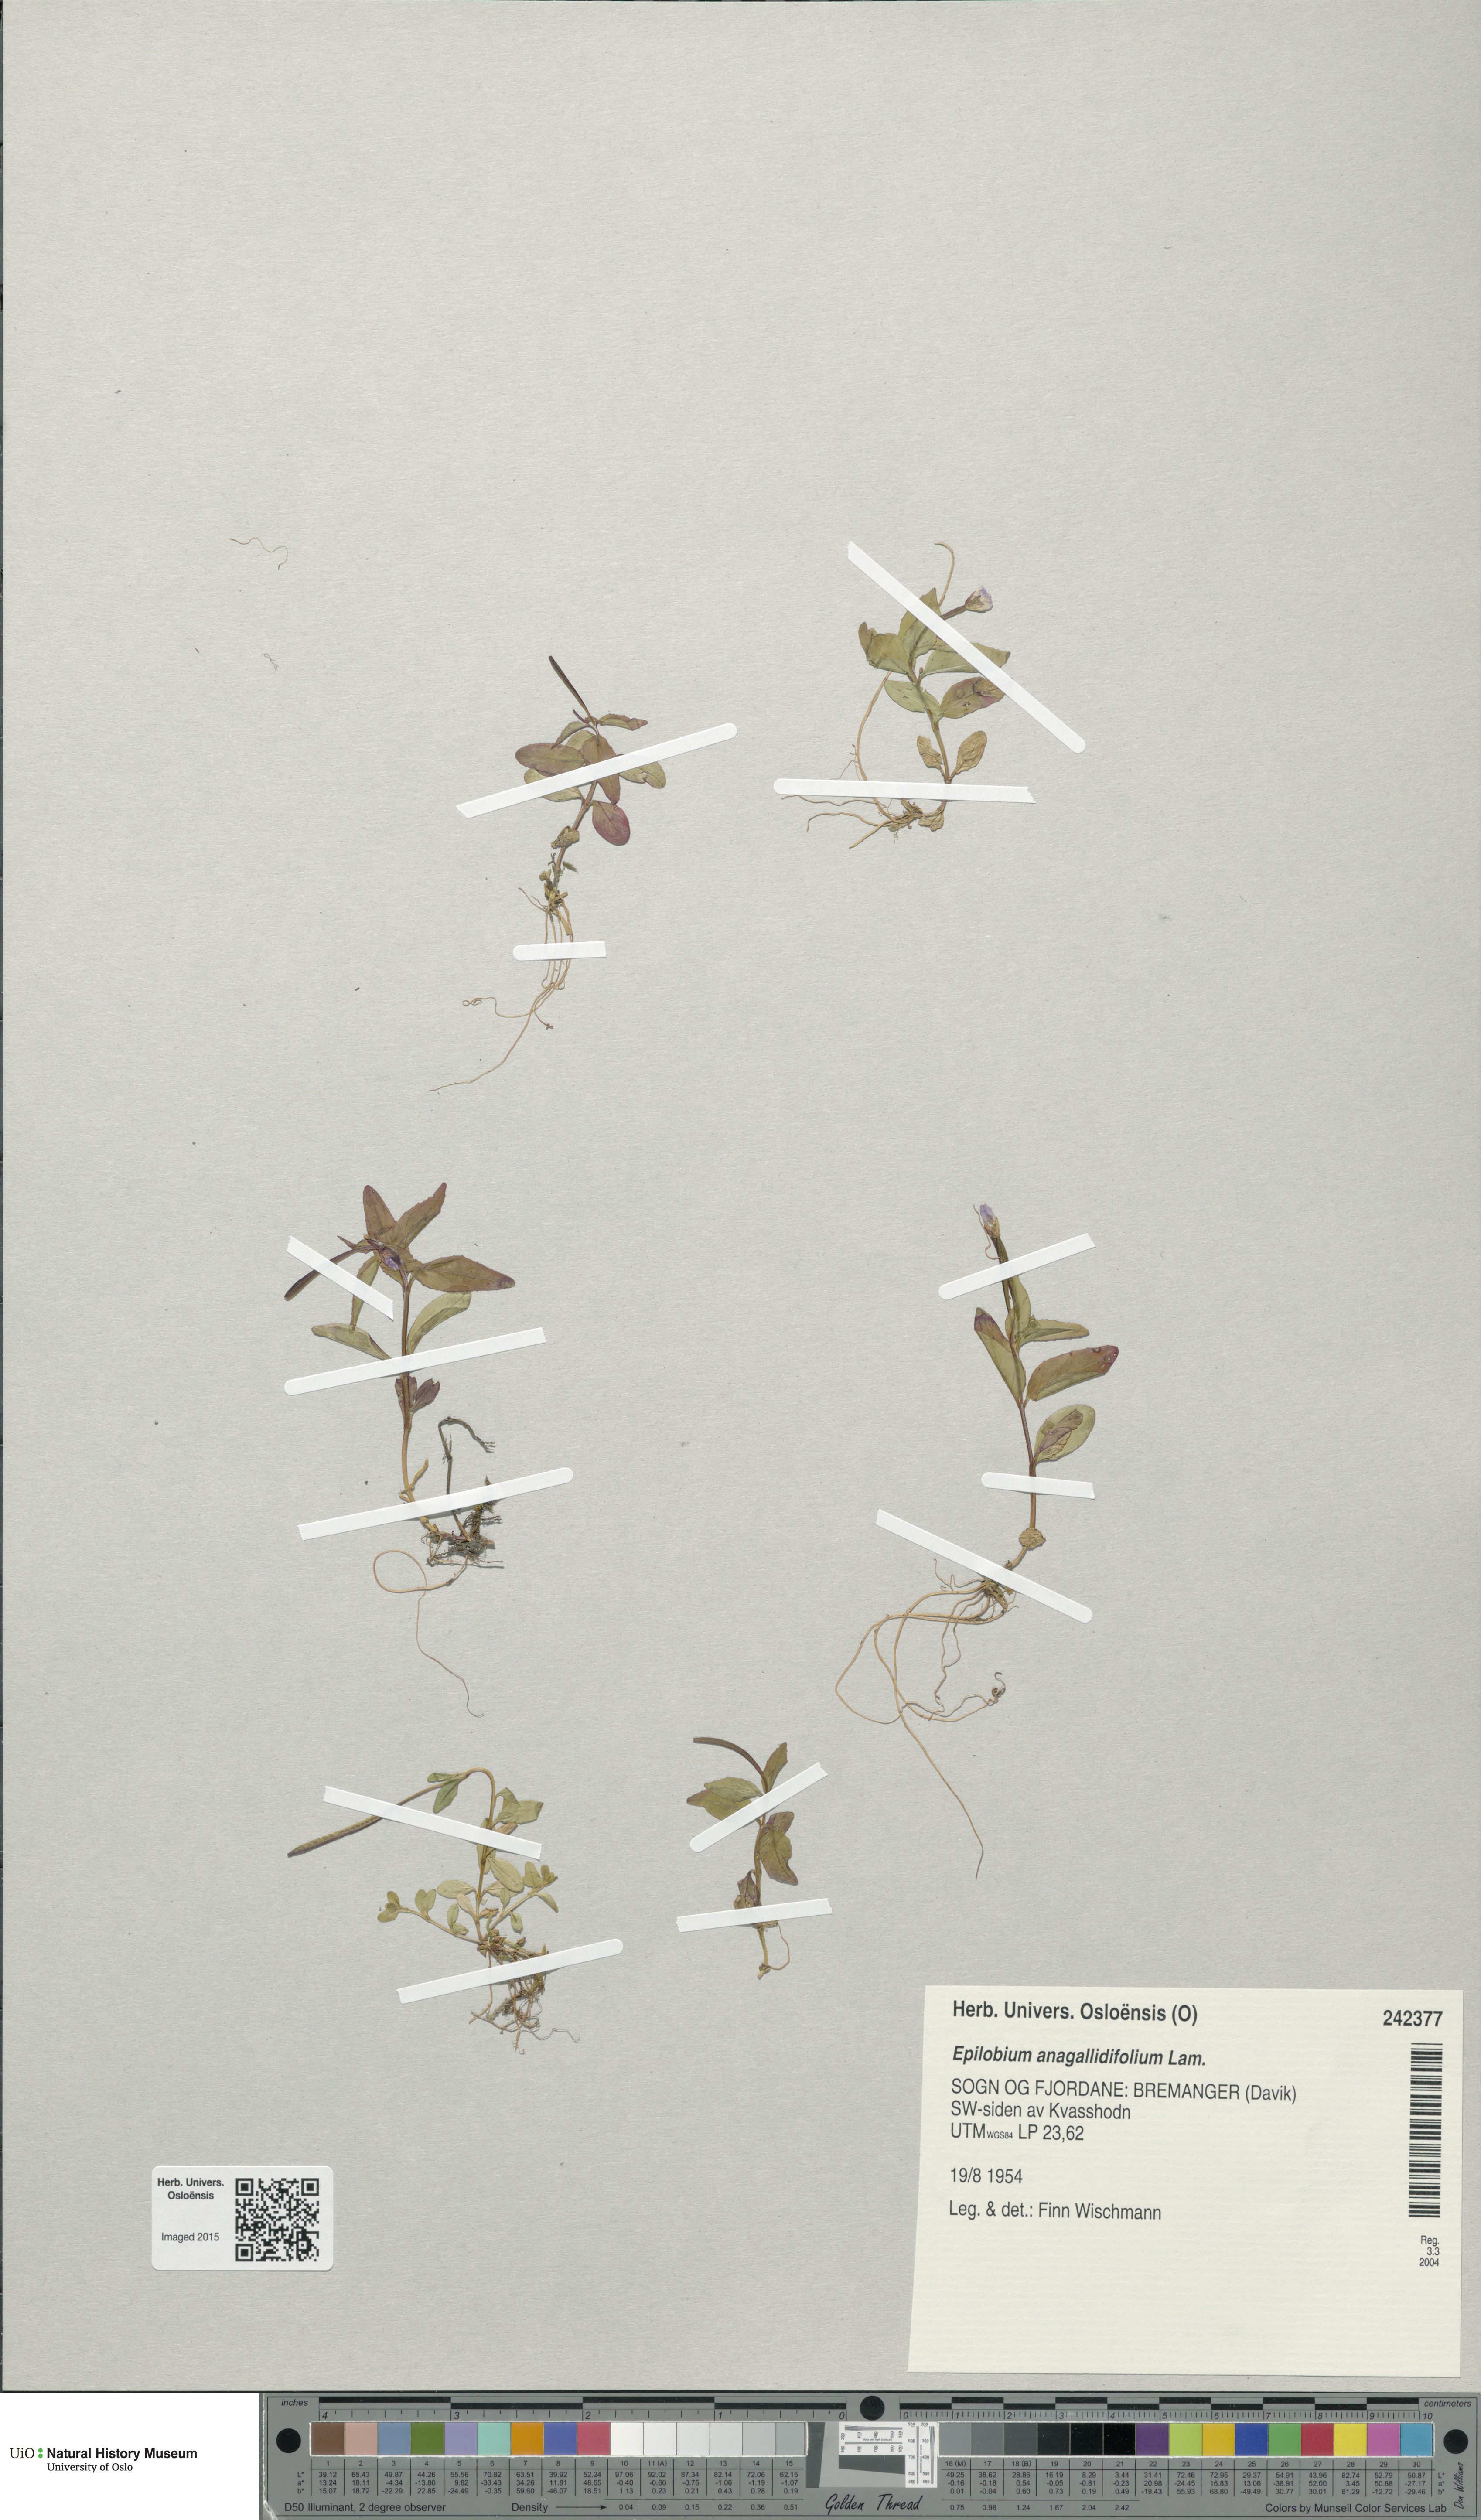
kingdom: Plantae
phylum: Tracheophyta
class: Magnoliopsida
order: Myrtales
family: Onagraceae
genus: Epilobium
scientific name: Epilobium anagallidifolium
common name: Alpine willowherb
